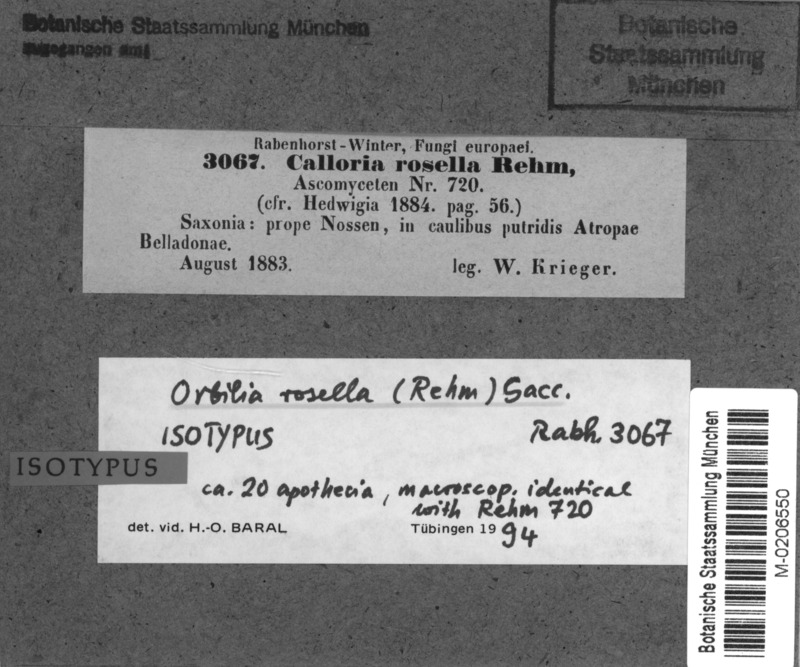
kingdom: Fungi
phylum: Ascomycota
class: Orbiliomycetes
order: Orbiliales
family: Orbiliaceae
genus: Orbilia
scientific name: Orbilia rosella
